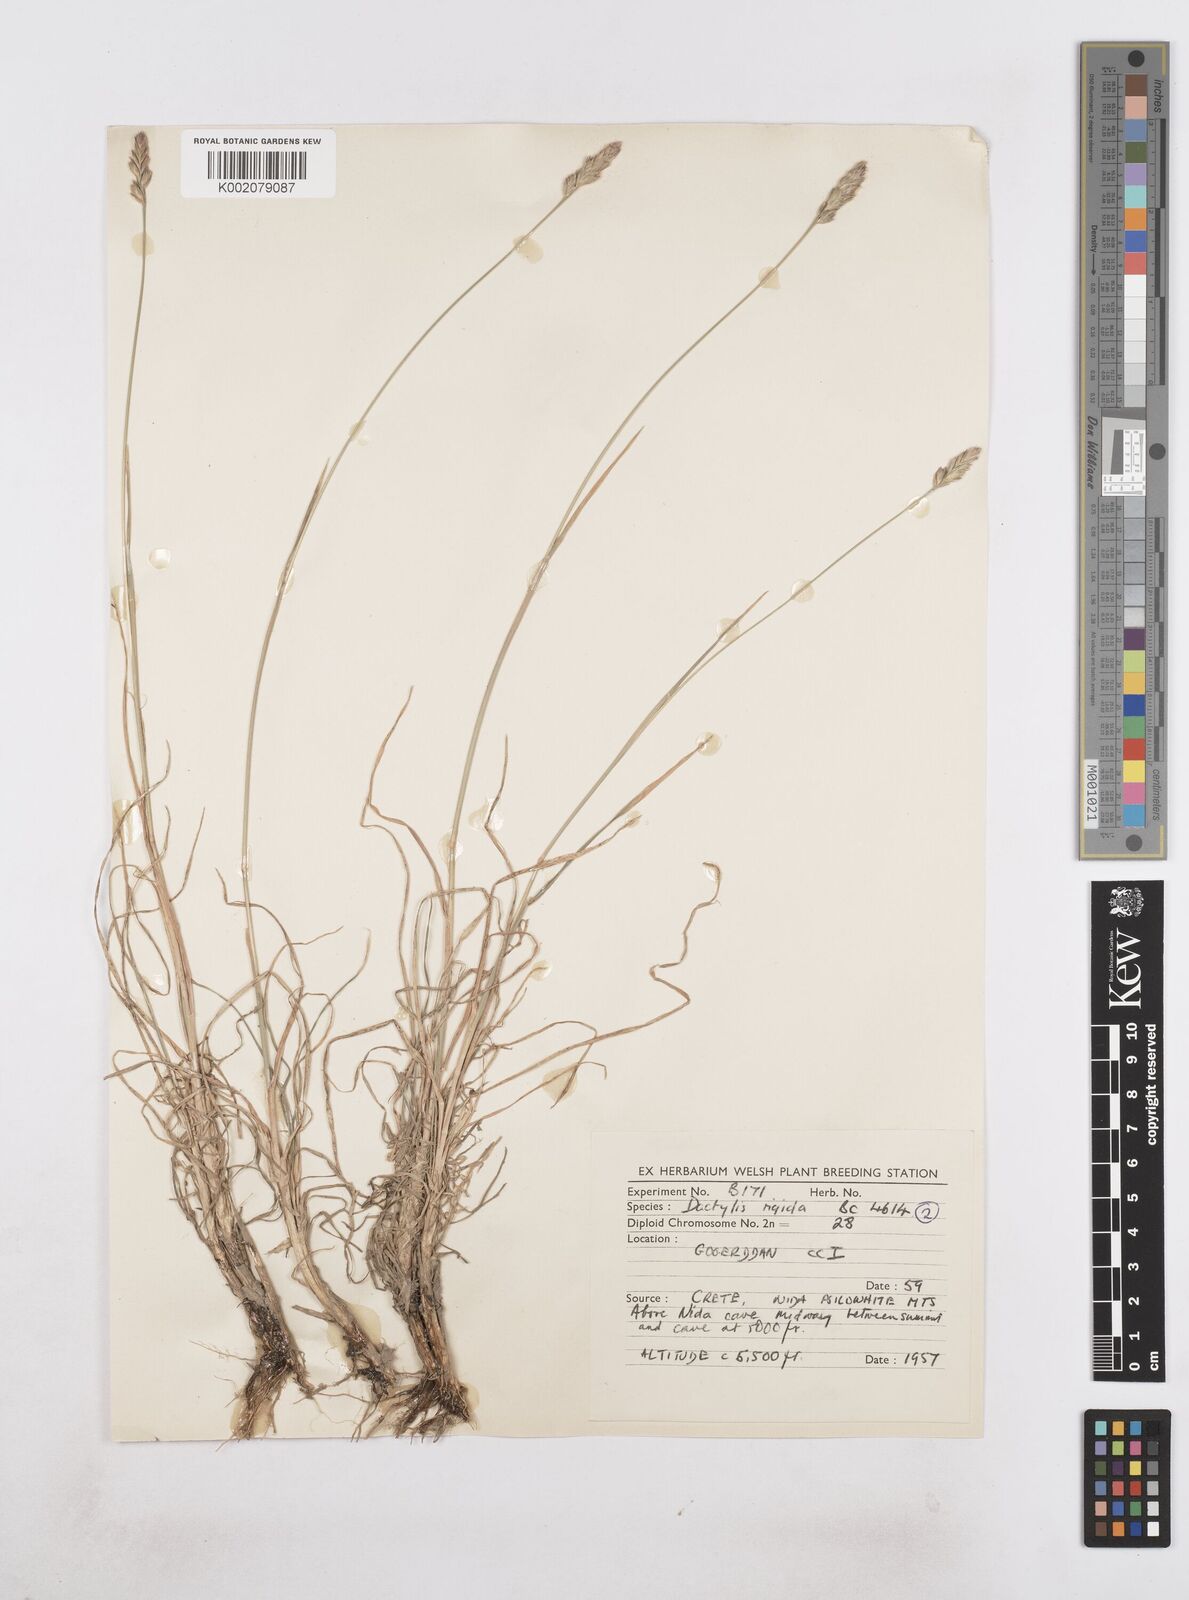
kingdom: Plantae
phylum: Tracheophyta
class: Liliopsida
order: Poales
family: Poaceae
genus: Dactylis
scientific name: Dactylis glomerata
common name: Orchardgrass
